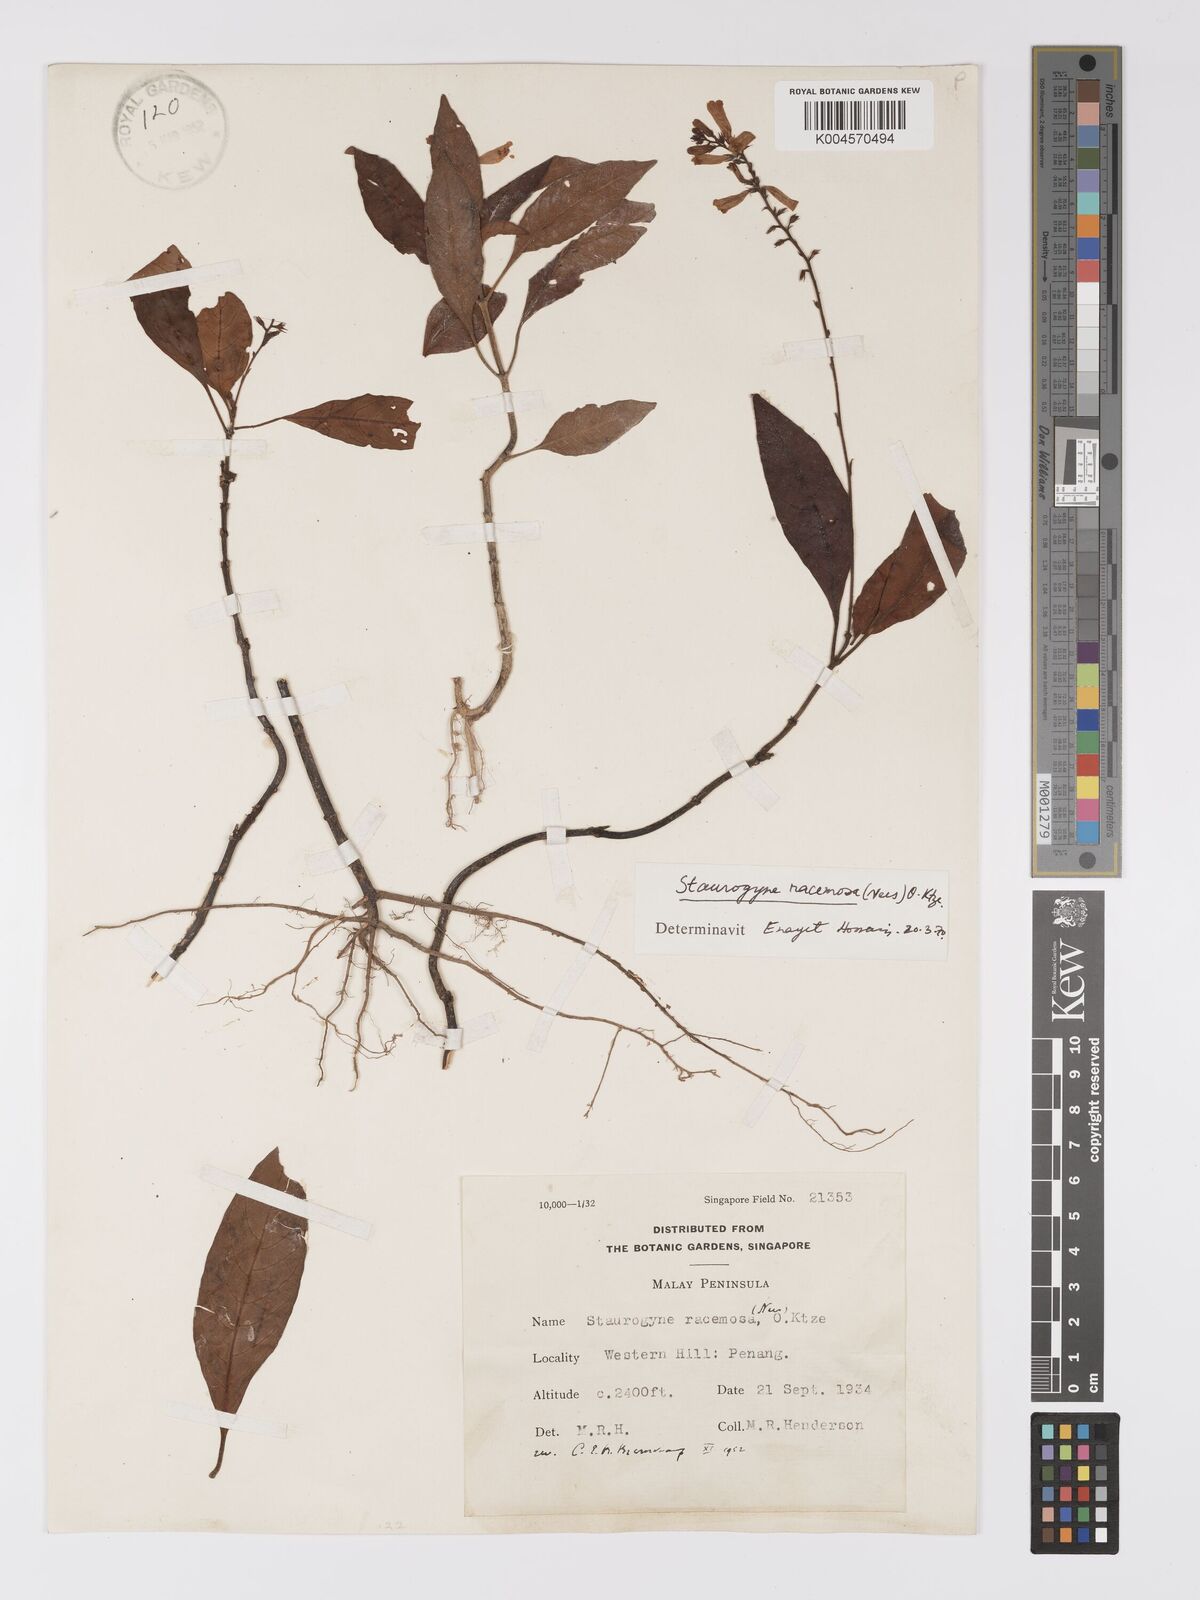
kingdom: Plantae
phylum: Tracheophyta
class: Magnoliopsida
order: Lamiales
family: Acanthaceae
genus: Staurogyne
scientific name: Staurogyne racemosa
